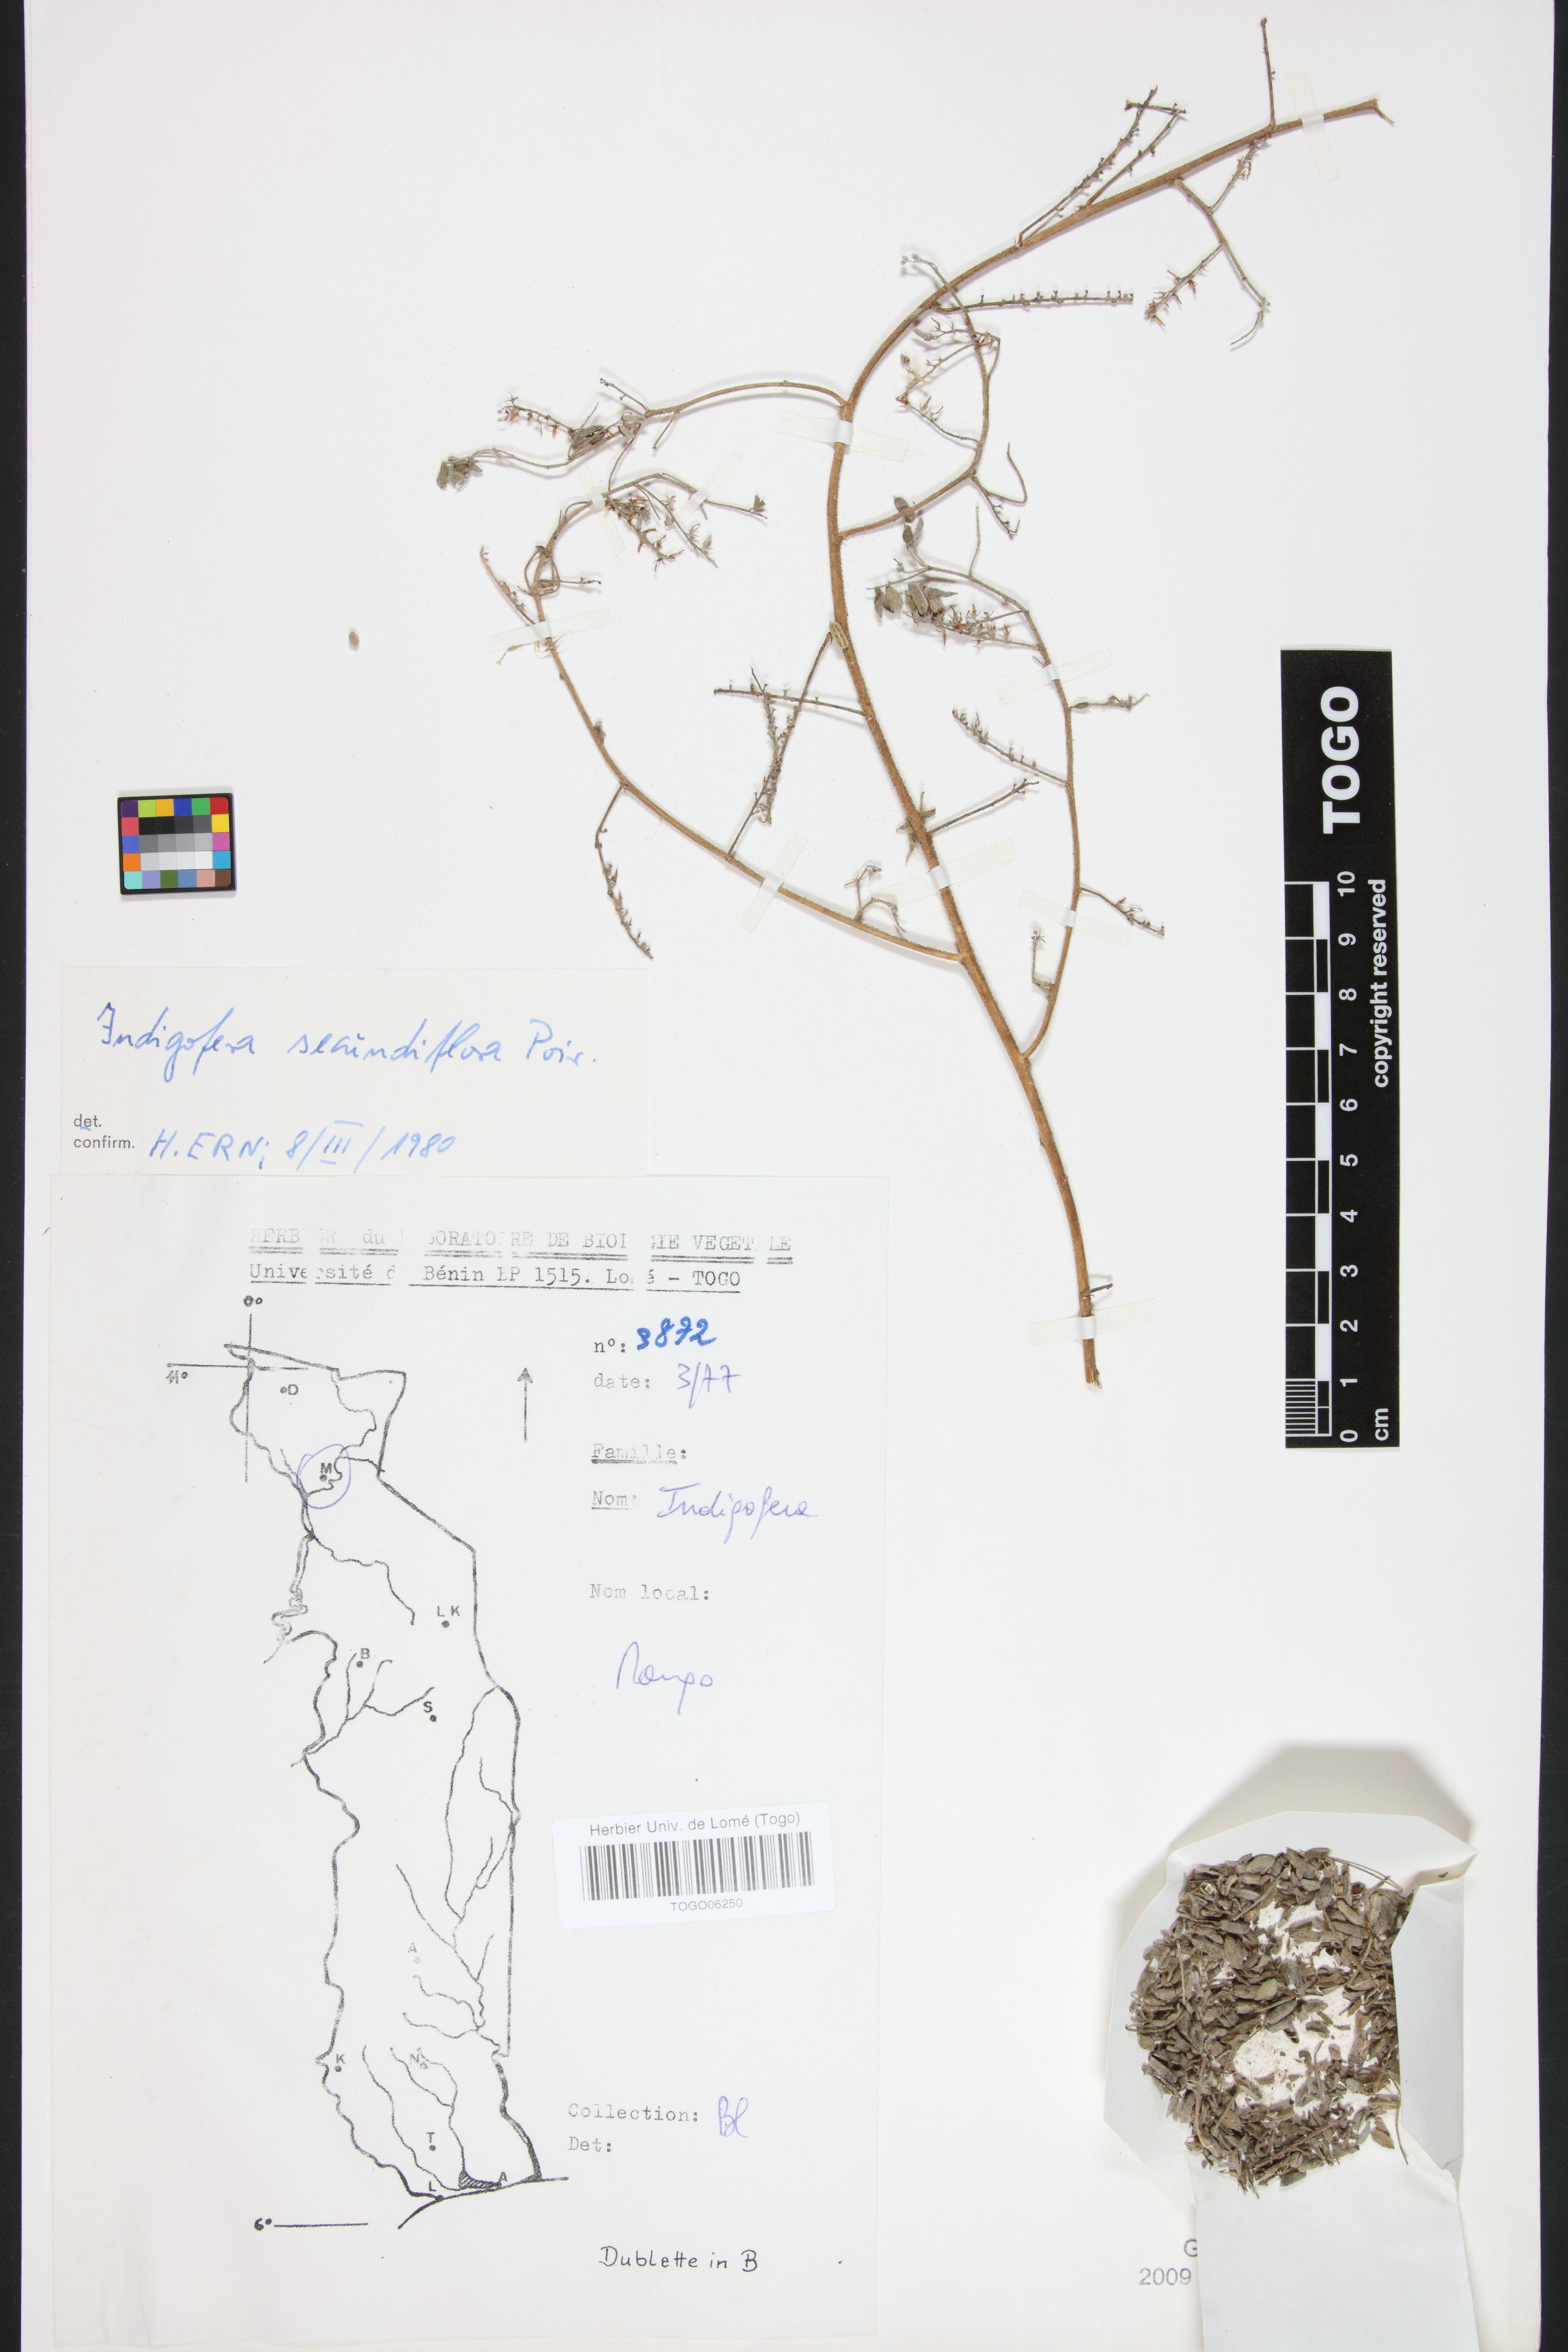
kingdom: Plantae
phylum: Tracheophyta
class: Magnoliopsida
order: Fabales
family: Fabaceae
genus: Indigofera
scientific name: Indigofera secundiflora
